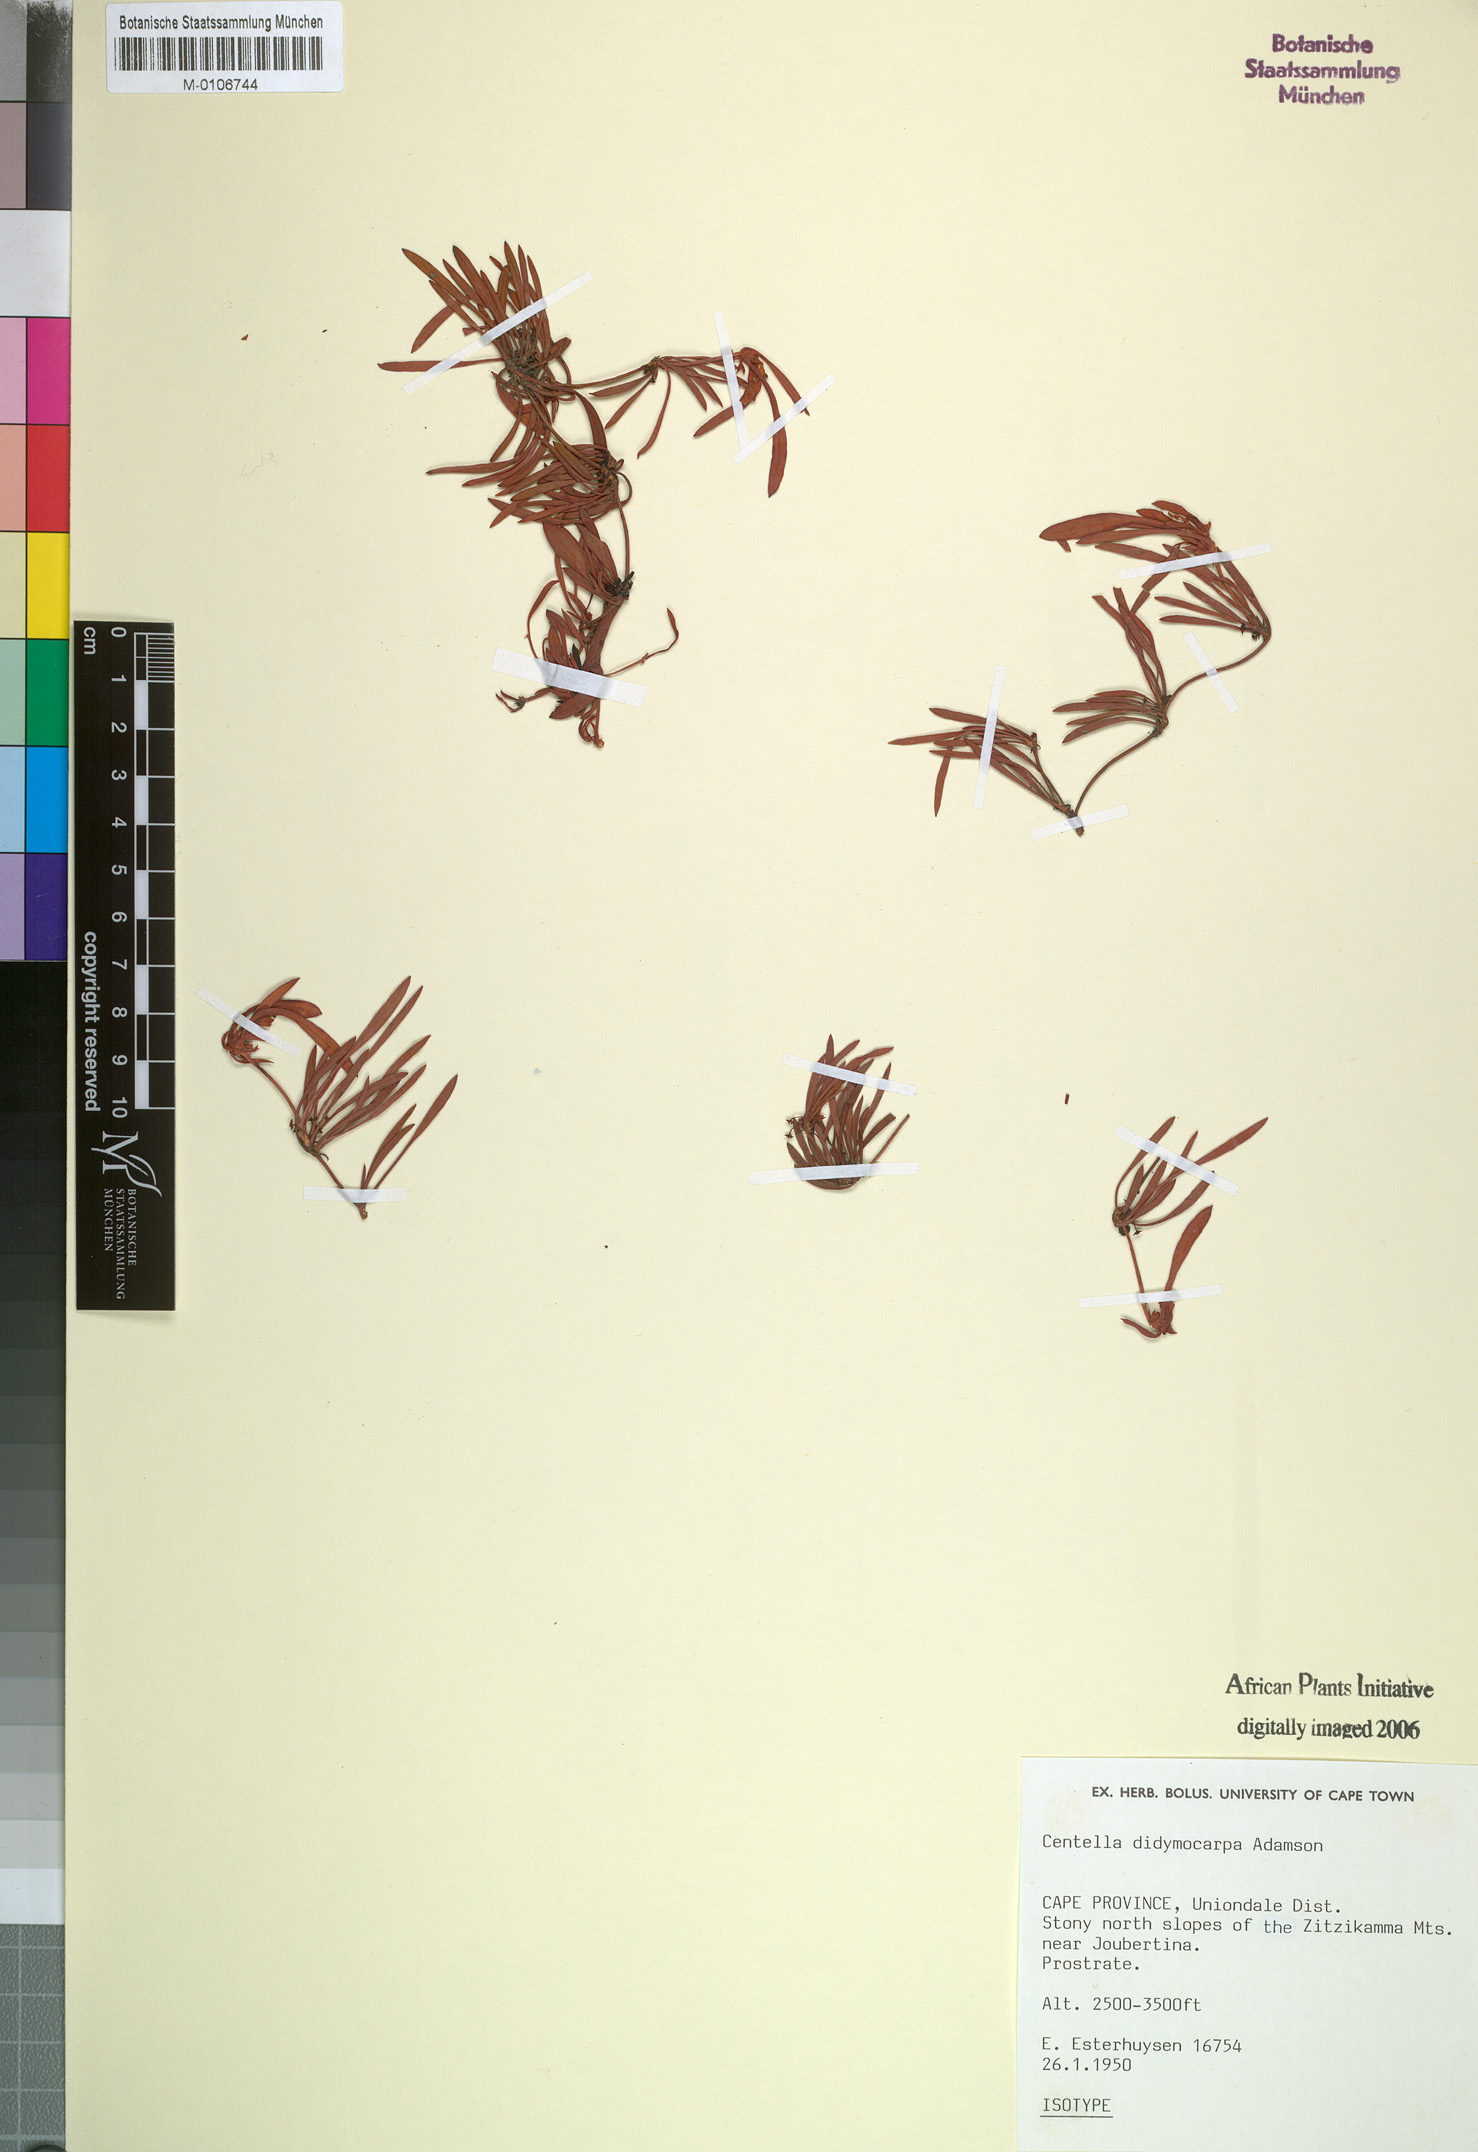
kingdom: Plantae
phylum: Tracheophyta
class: Magnoliopsida
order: Apiales
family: Apiaceae
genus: Centella
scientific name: Centella didymocarpa
